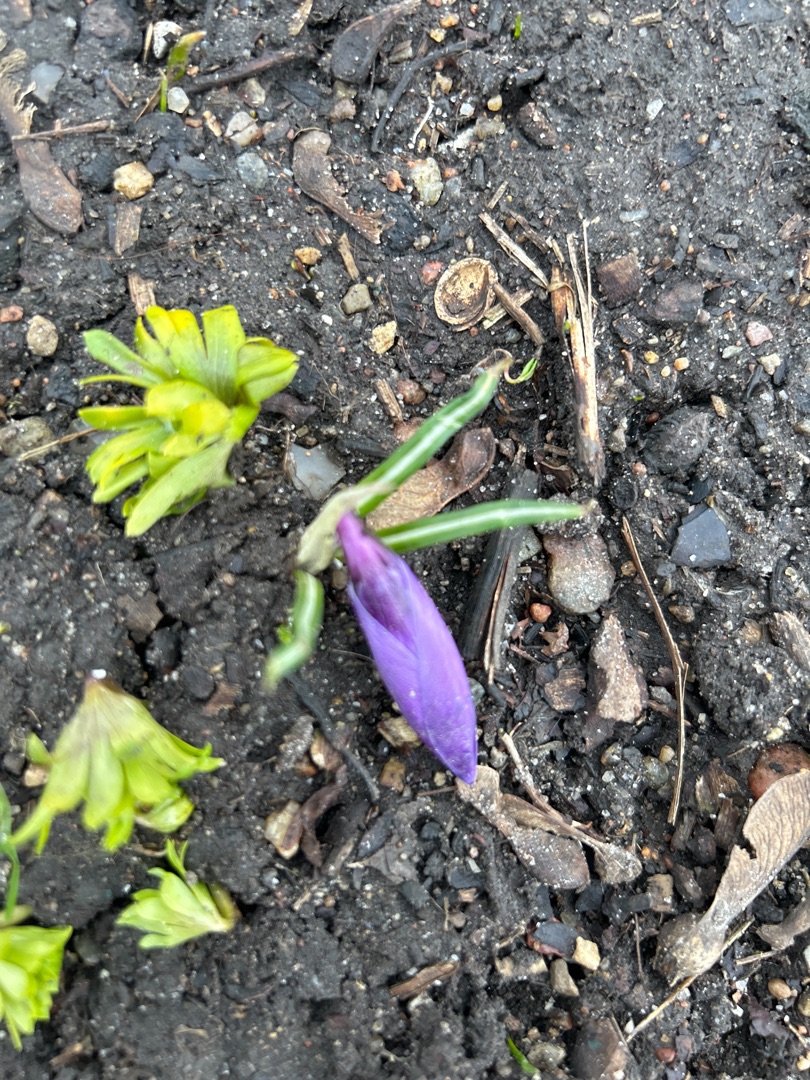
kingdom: Plantae
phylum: Tracheophyta
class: Liliopsida
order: Asparagales
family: Iridaceae
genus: Crocus
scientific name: Crocus vernus
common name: Vår-krokus
